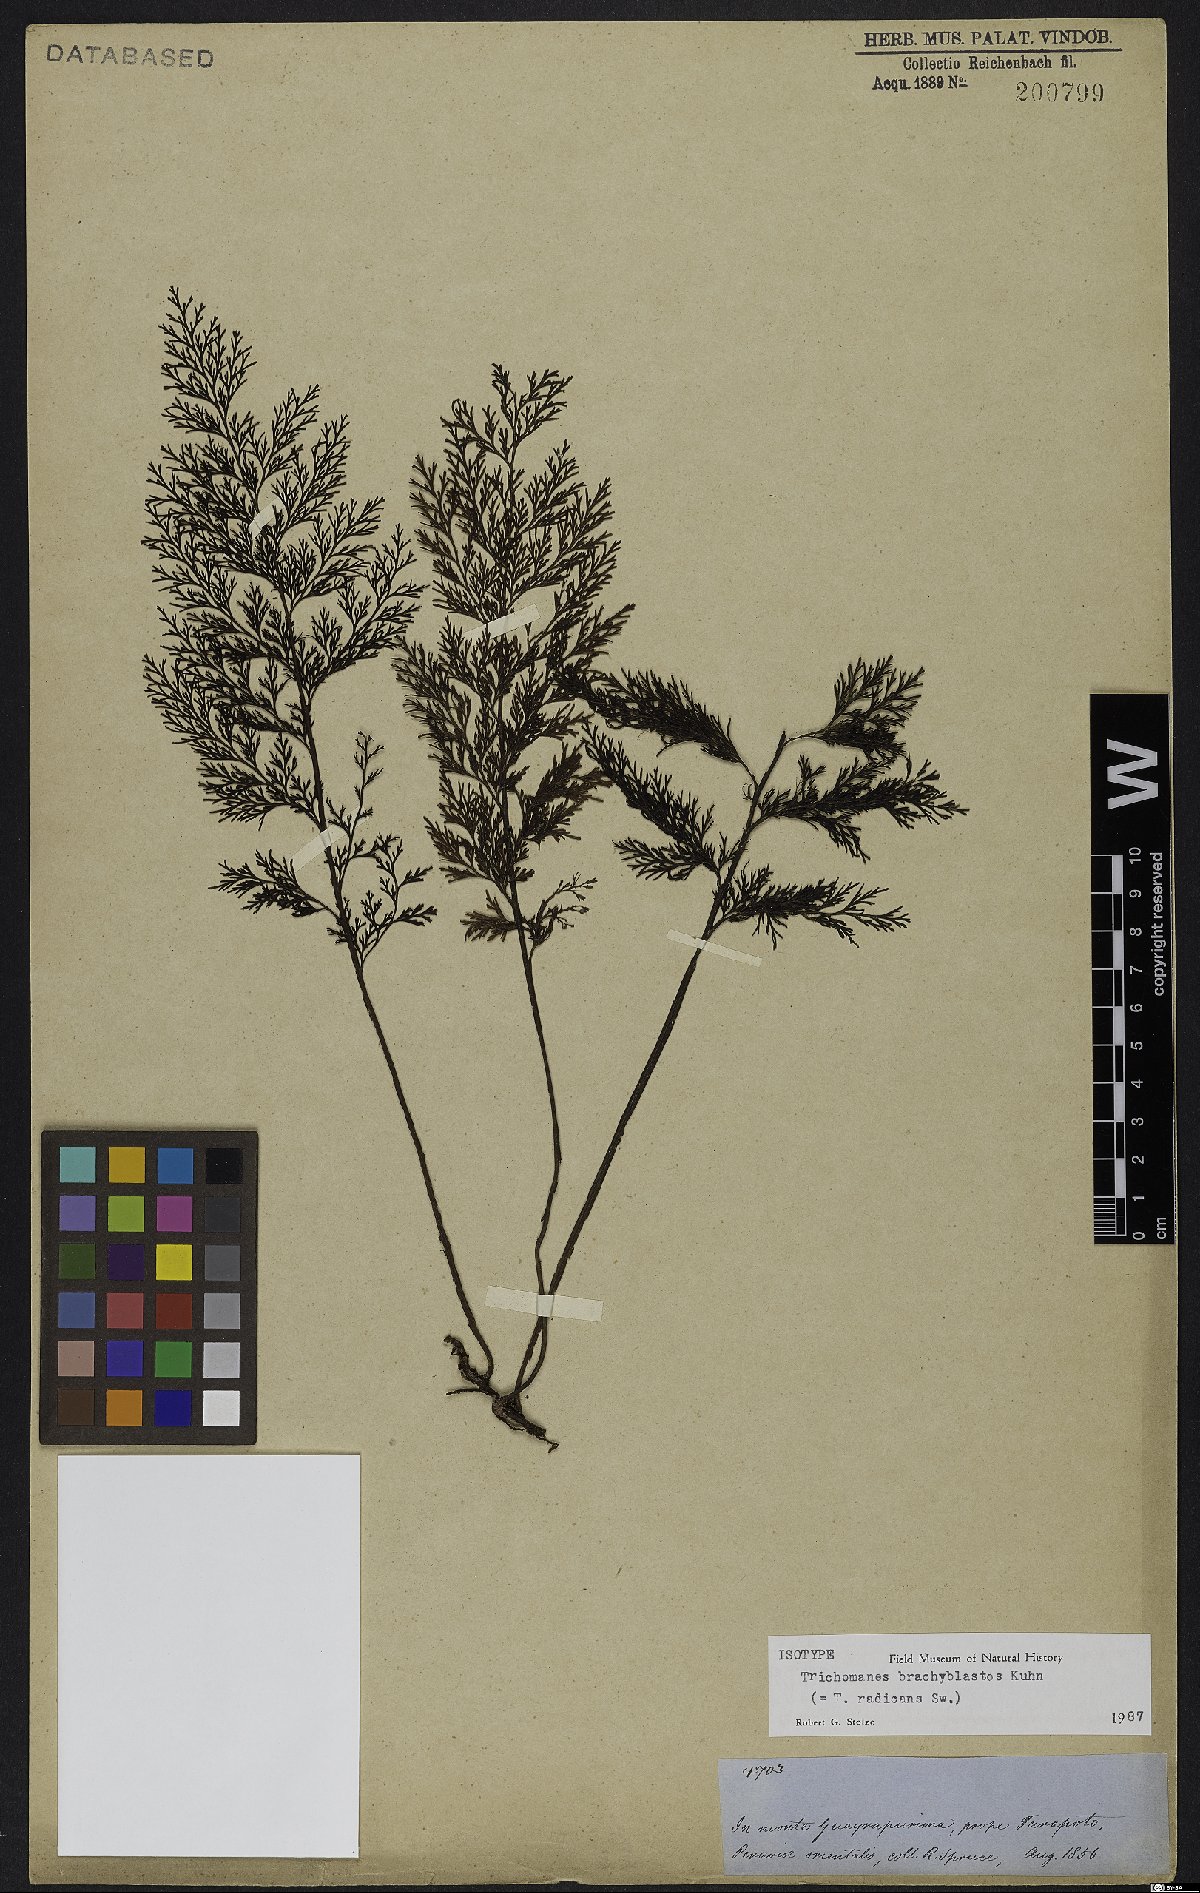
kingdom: Plantae
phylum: Tracheophyta
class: Polypodiopsida
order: Hymenophyllales
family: Hymenophyllaceae
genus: Vandenboschia
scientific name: Vandenboschia radicans
